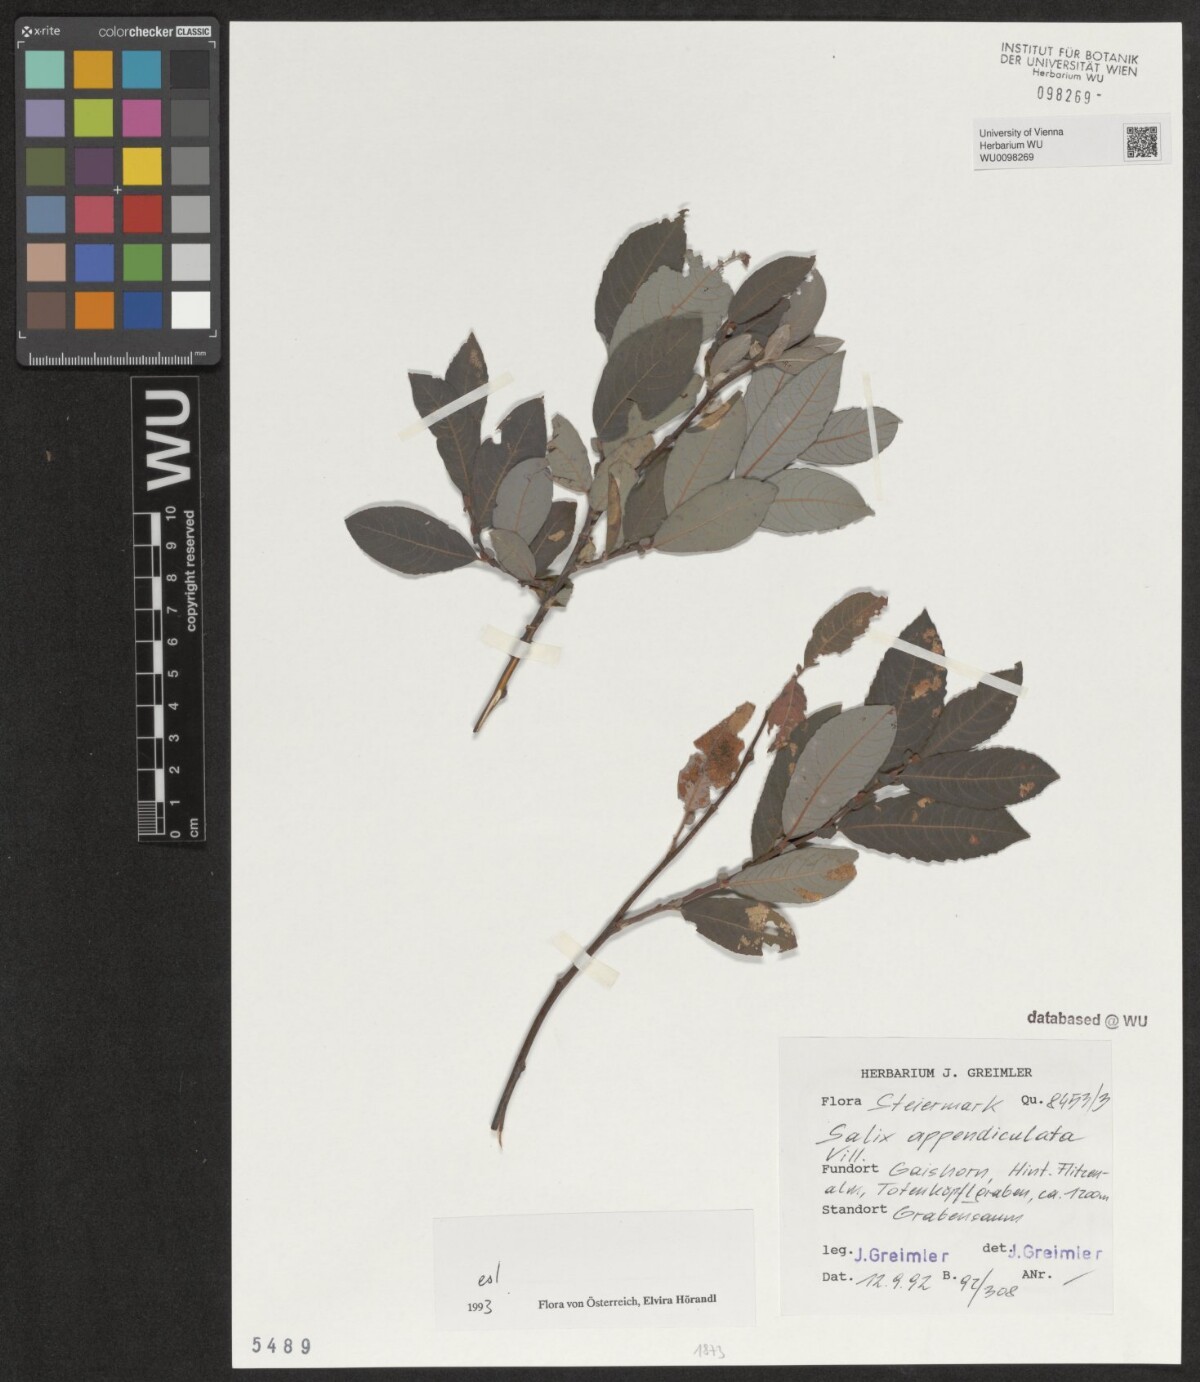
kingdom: Plantae
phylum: Tracheophyta
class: Magnoliopsida
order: Malpighiales
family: Salicaceae
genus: Salix
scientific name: Salix appendiculata
